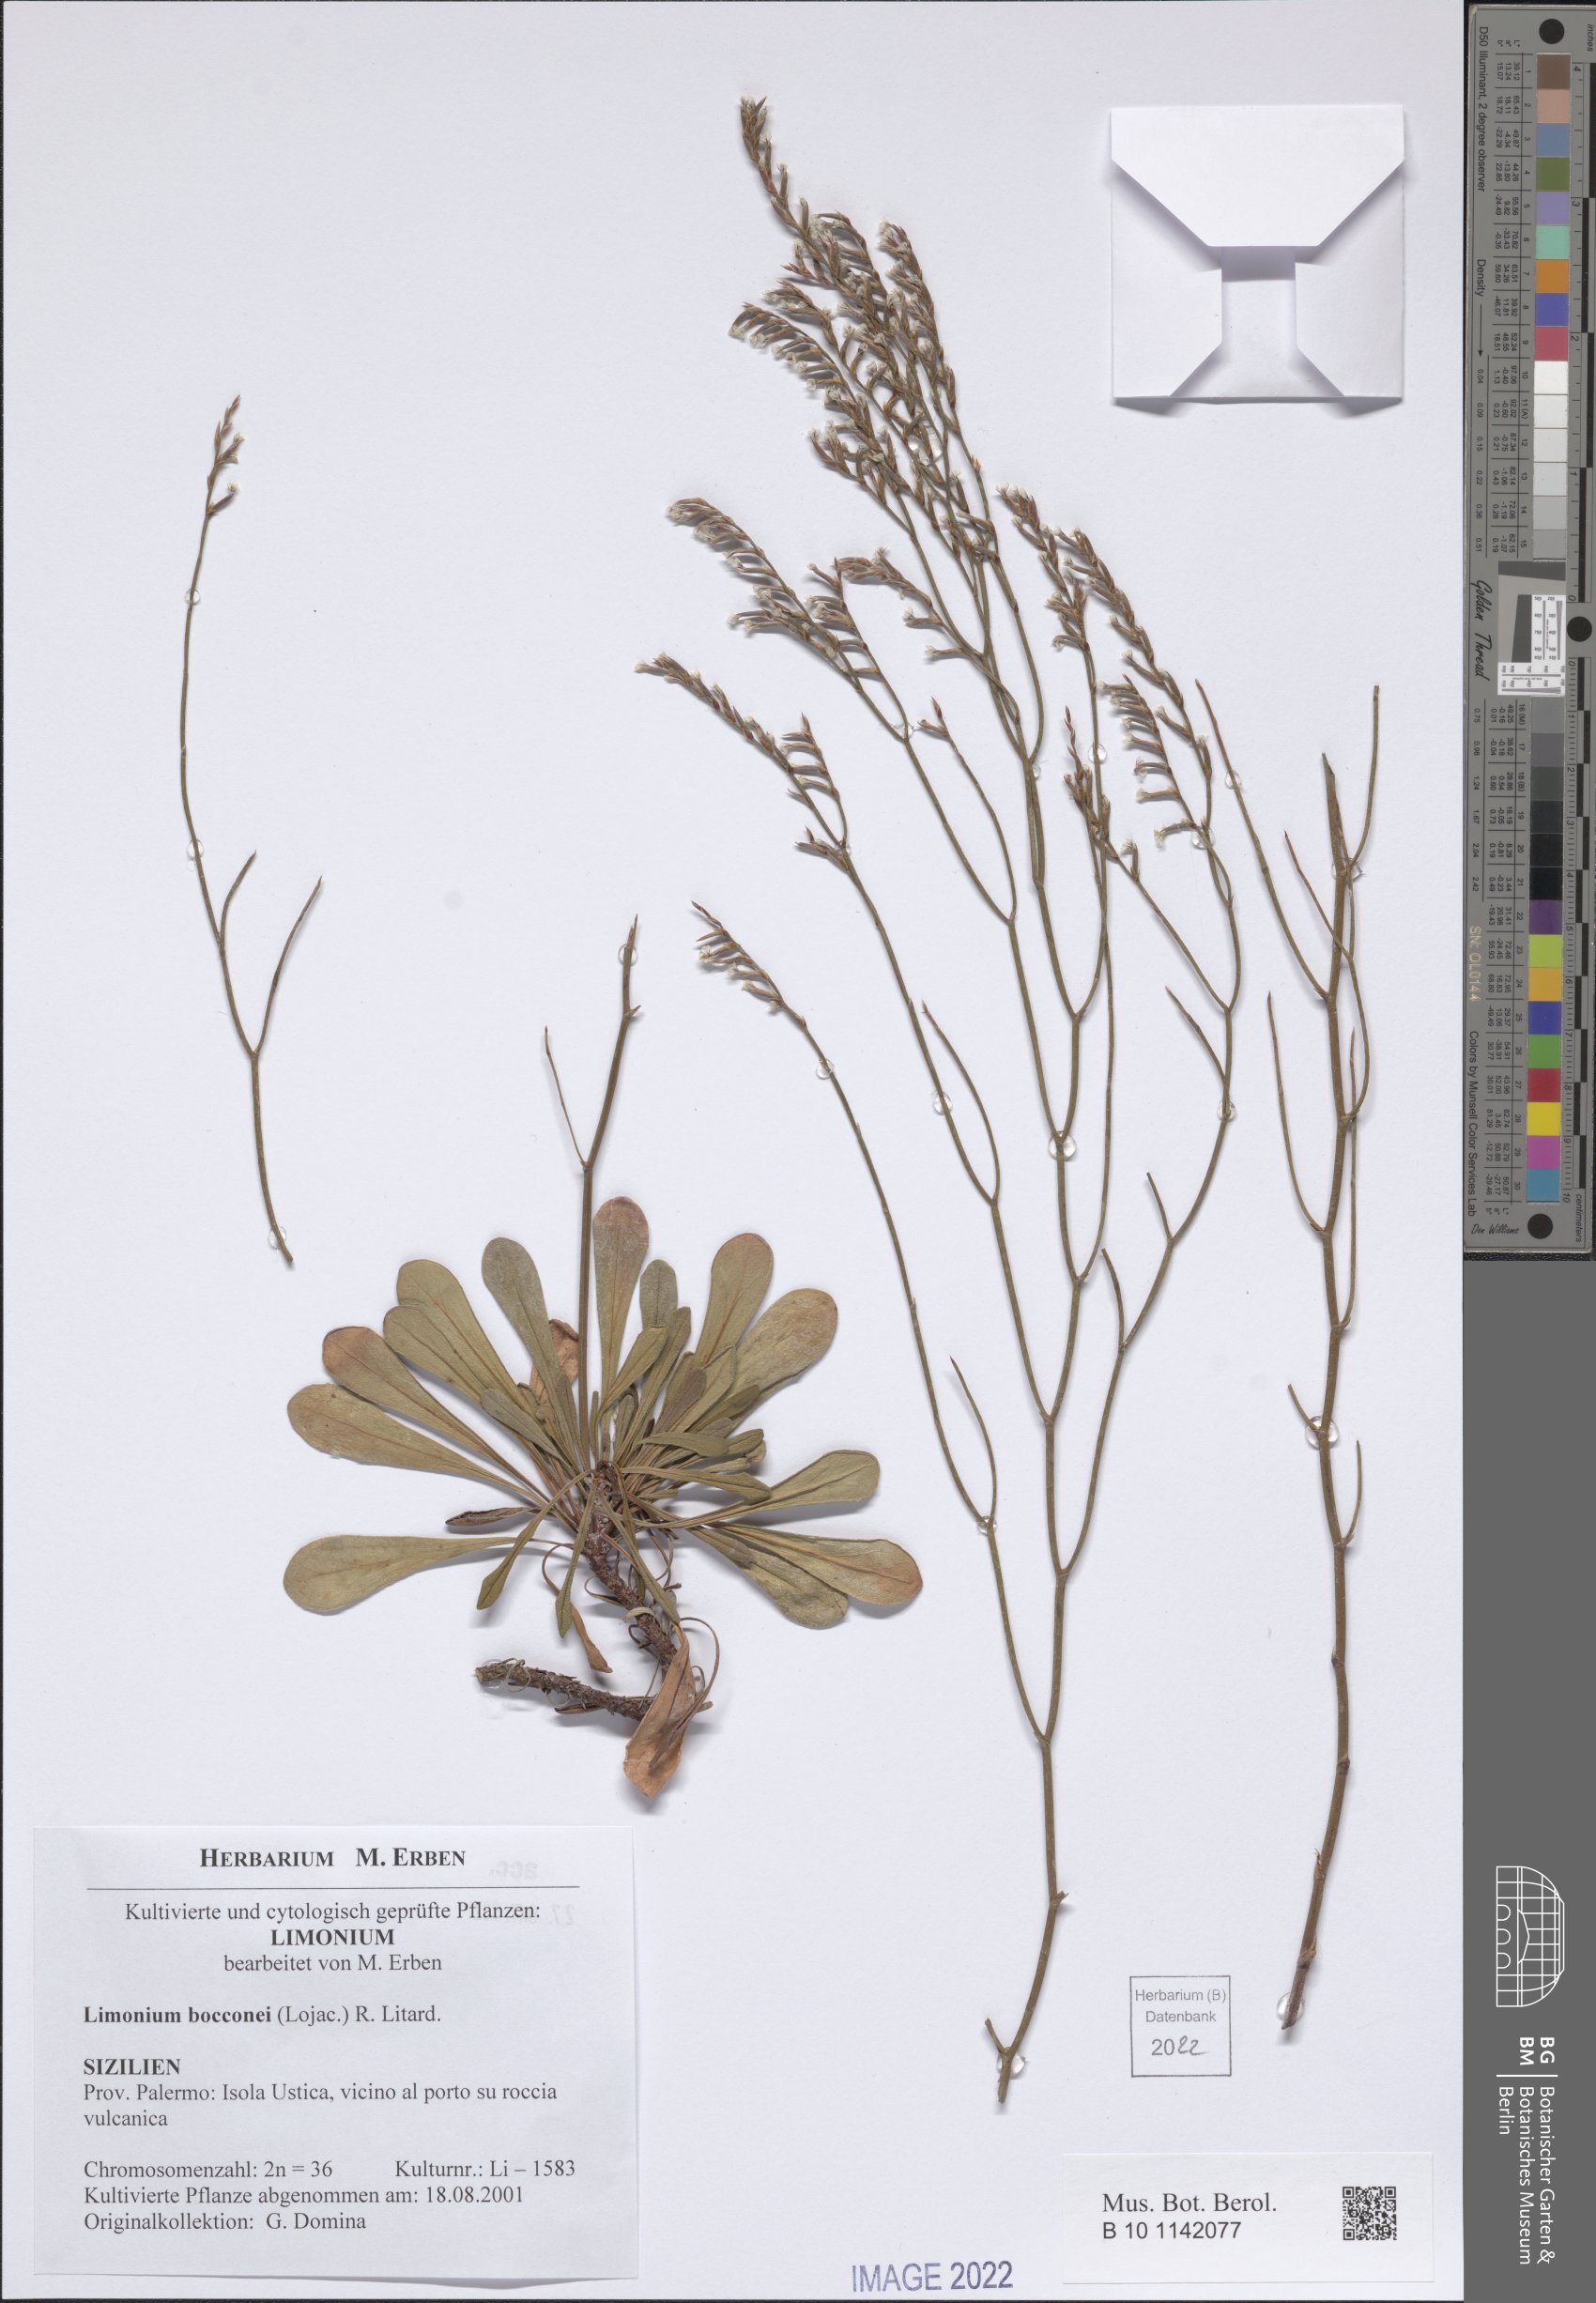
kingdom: Plantae
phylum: Tracheophyta
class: Magnoliopsida
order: Caryophyllales
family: Plumbaginaceae
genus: Limonium
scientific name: Limonium bocconei
